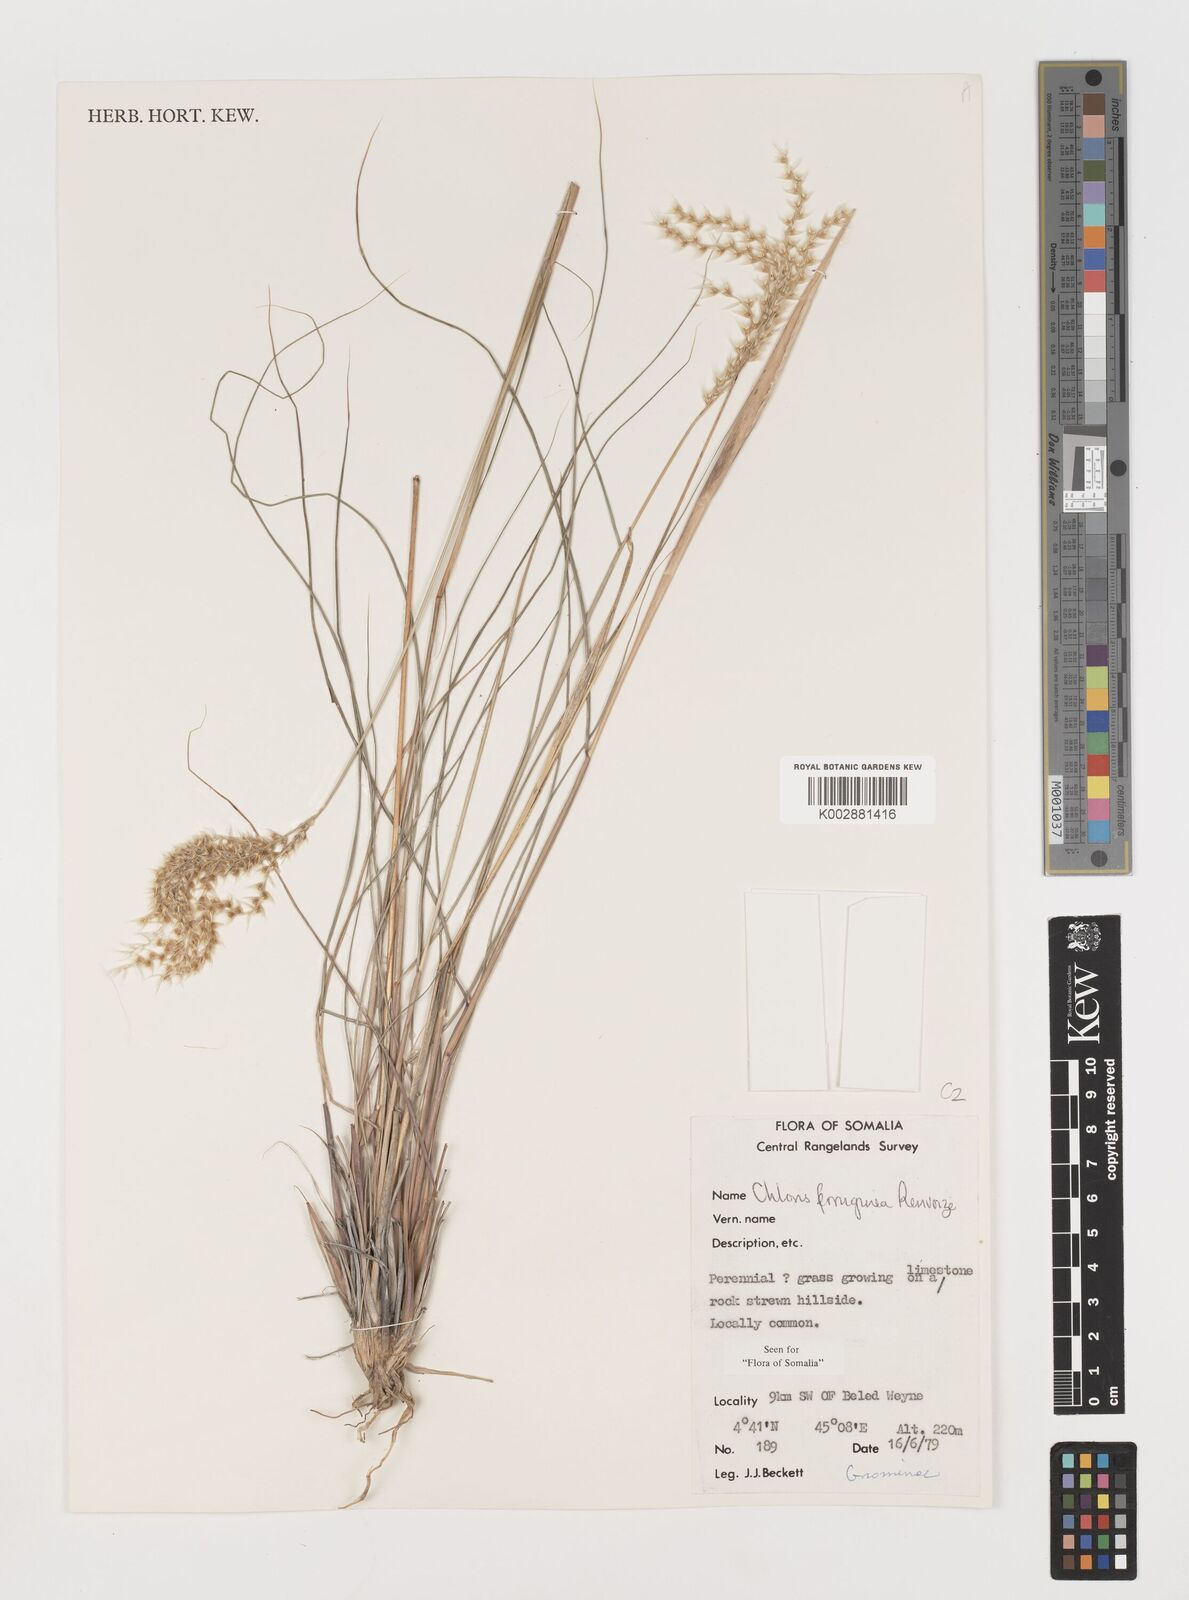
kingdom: Plantae
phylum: Tracheophyta
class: Liliopsida
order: Poales
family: Poaceae
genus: Tetrapogon
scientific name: Tetrapogon ferrugineus
